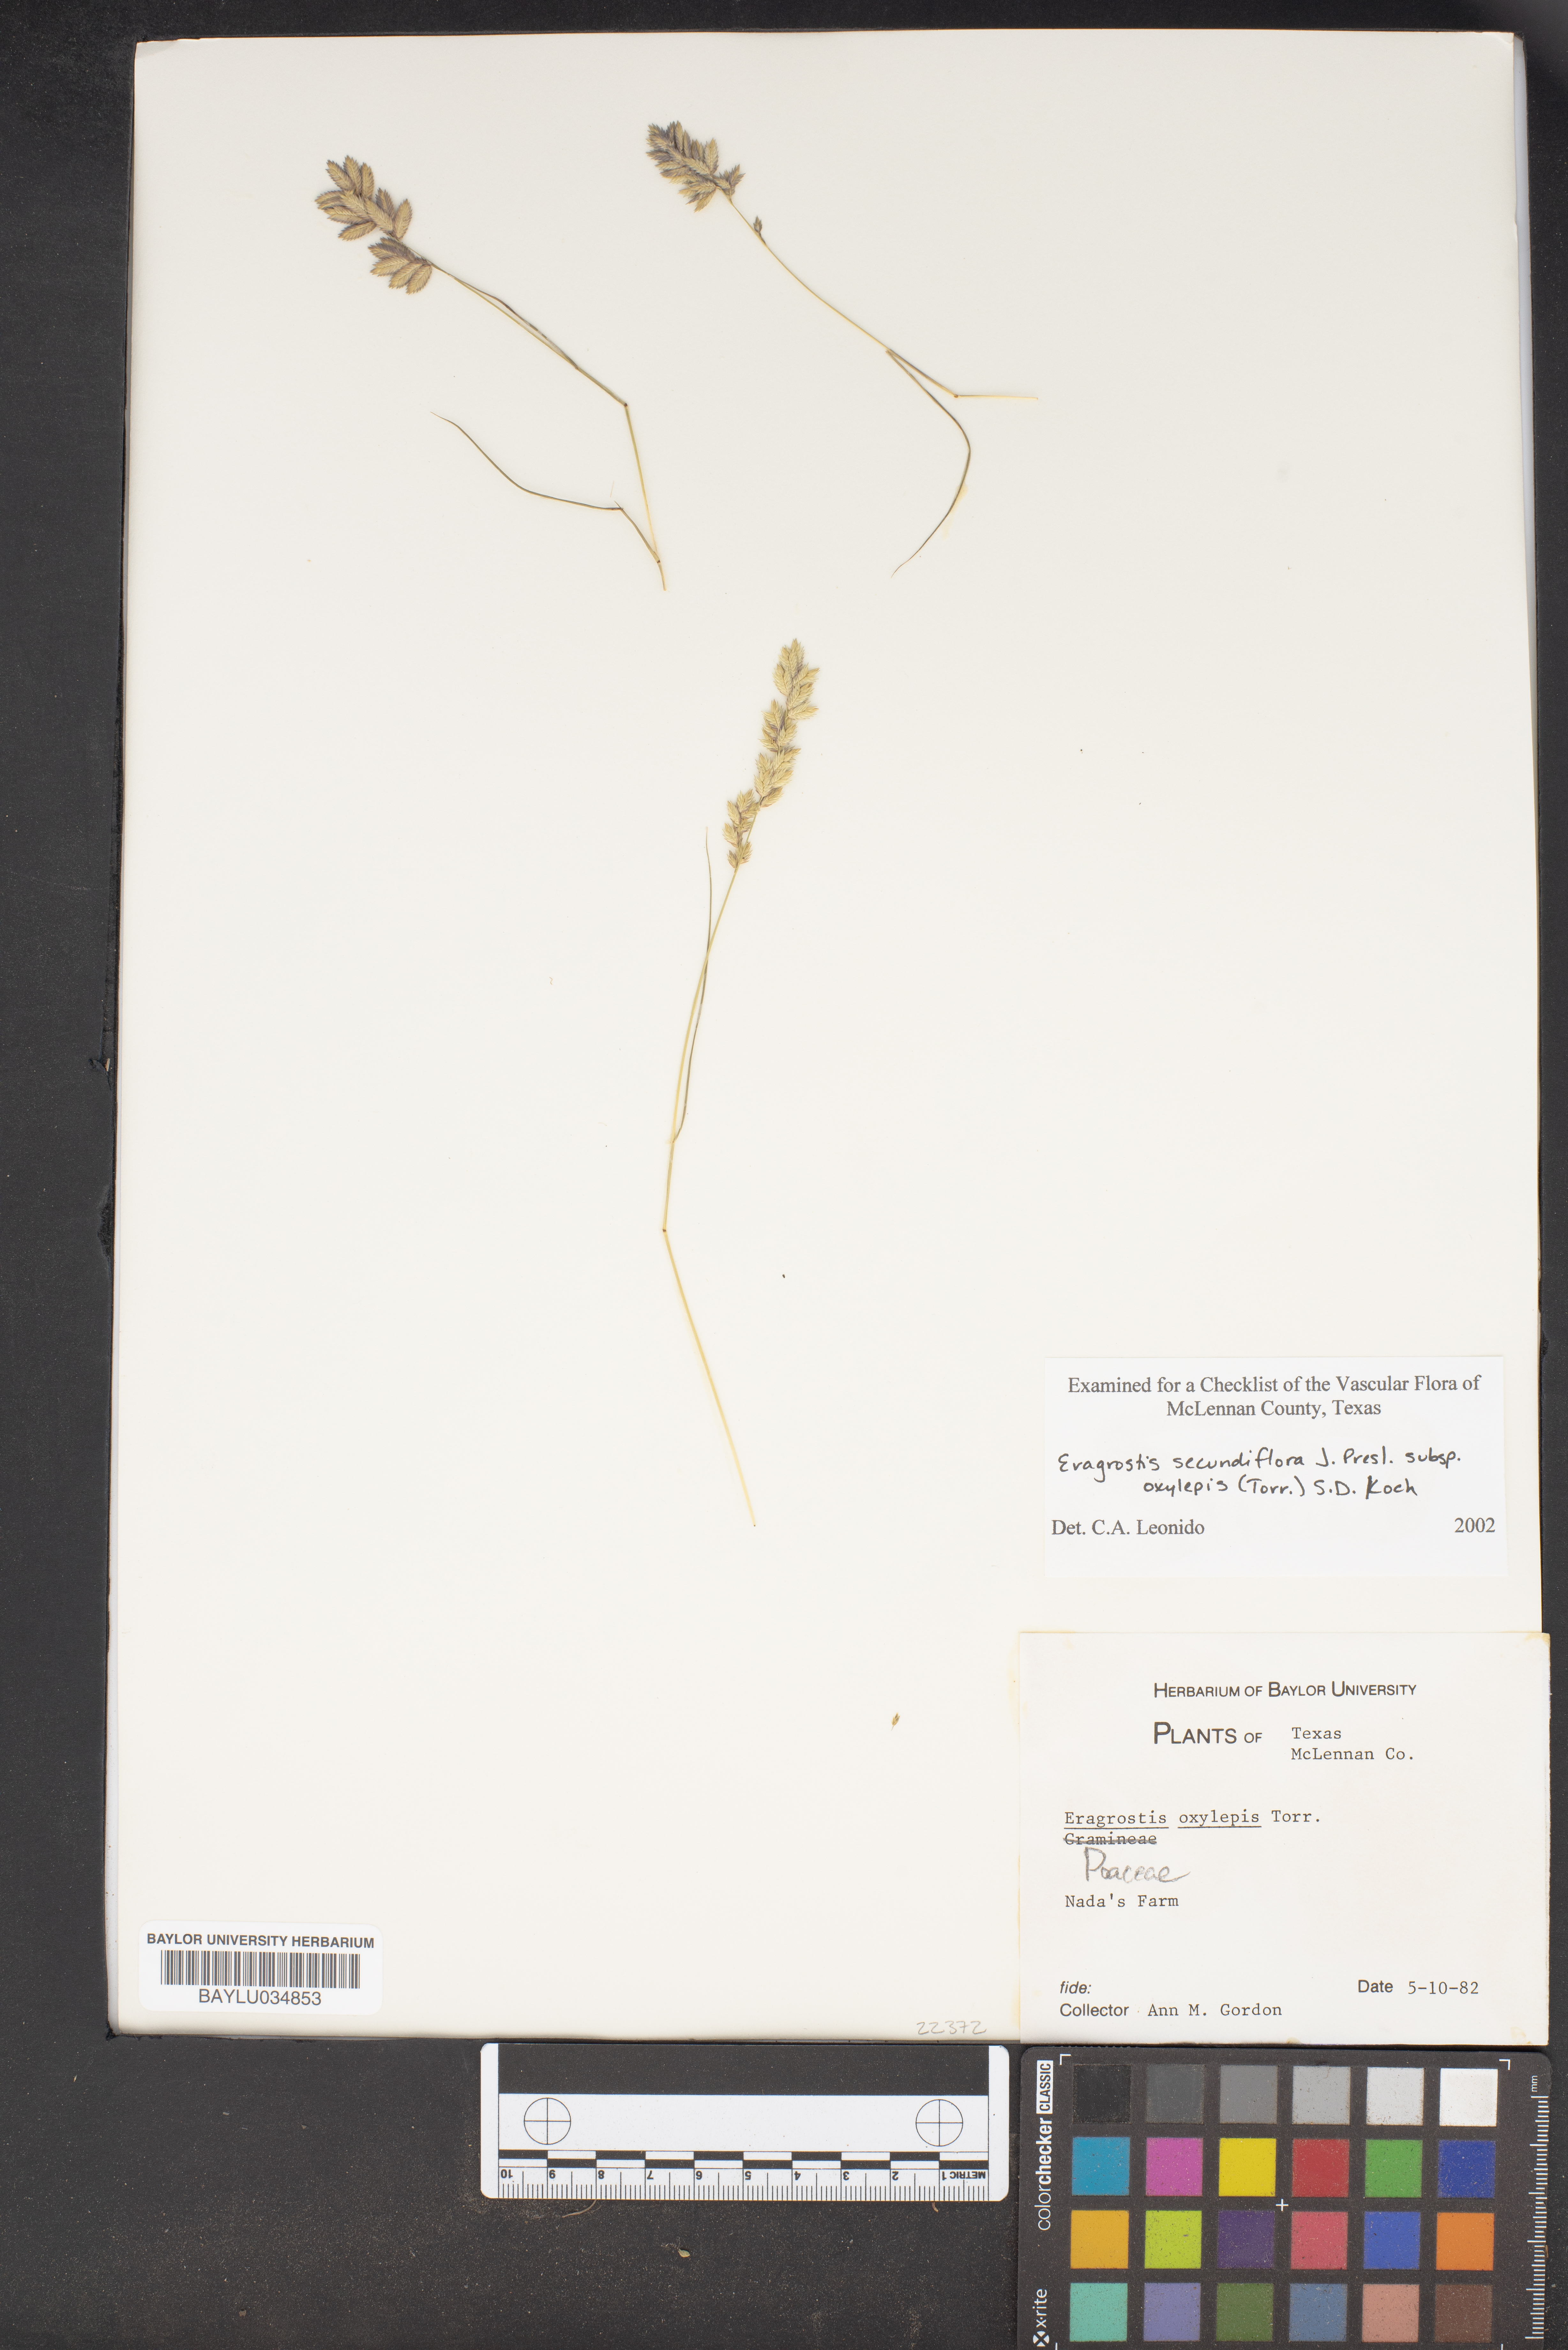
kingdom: Plantae
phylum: Tracheophyta
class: Liliopsida
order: Poales
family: Poaceae
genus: Eragrostis
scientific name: Eragrostis secundiflora
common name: Red love grass
